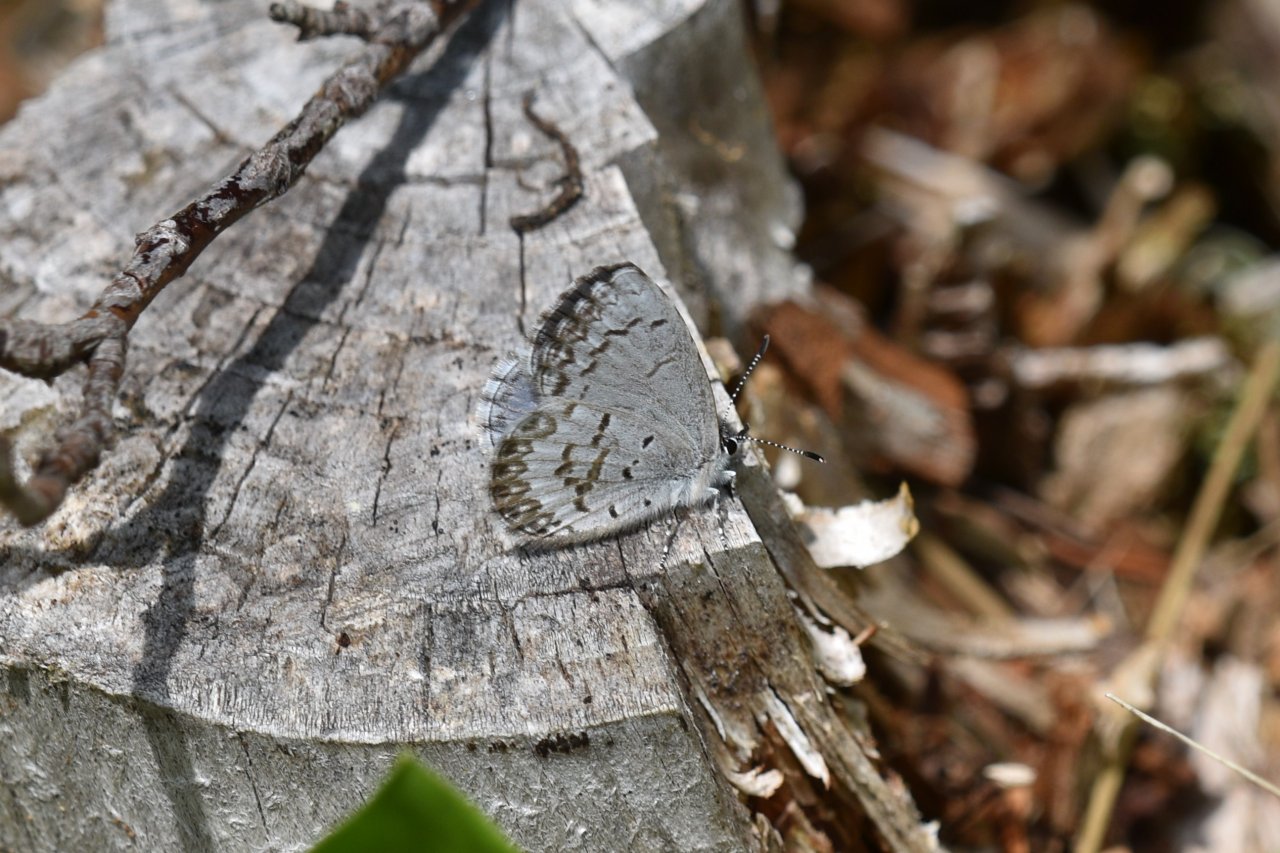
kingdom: Animalia
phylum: Arthropoda
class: Insecta
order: Lepidoptera
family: Lycaenidae
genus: Celastrina
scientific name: Celastrina lucia
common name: Northern Spring Azure
